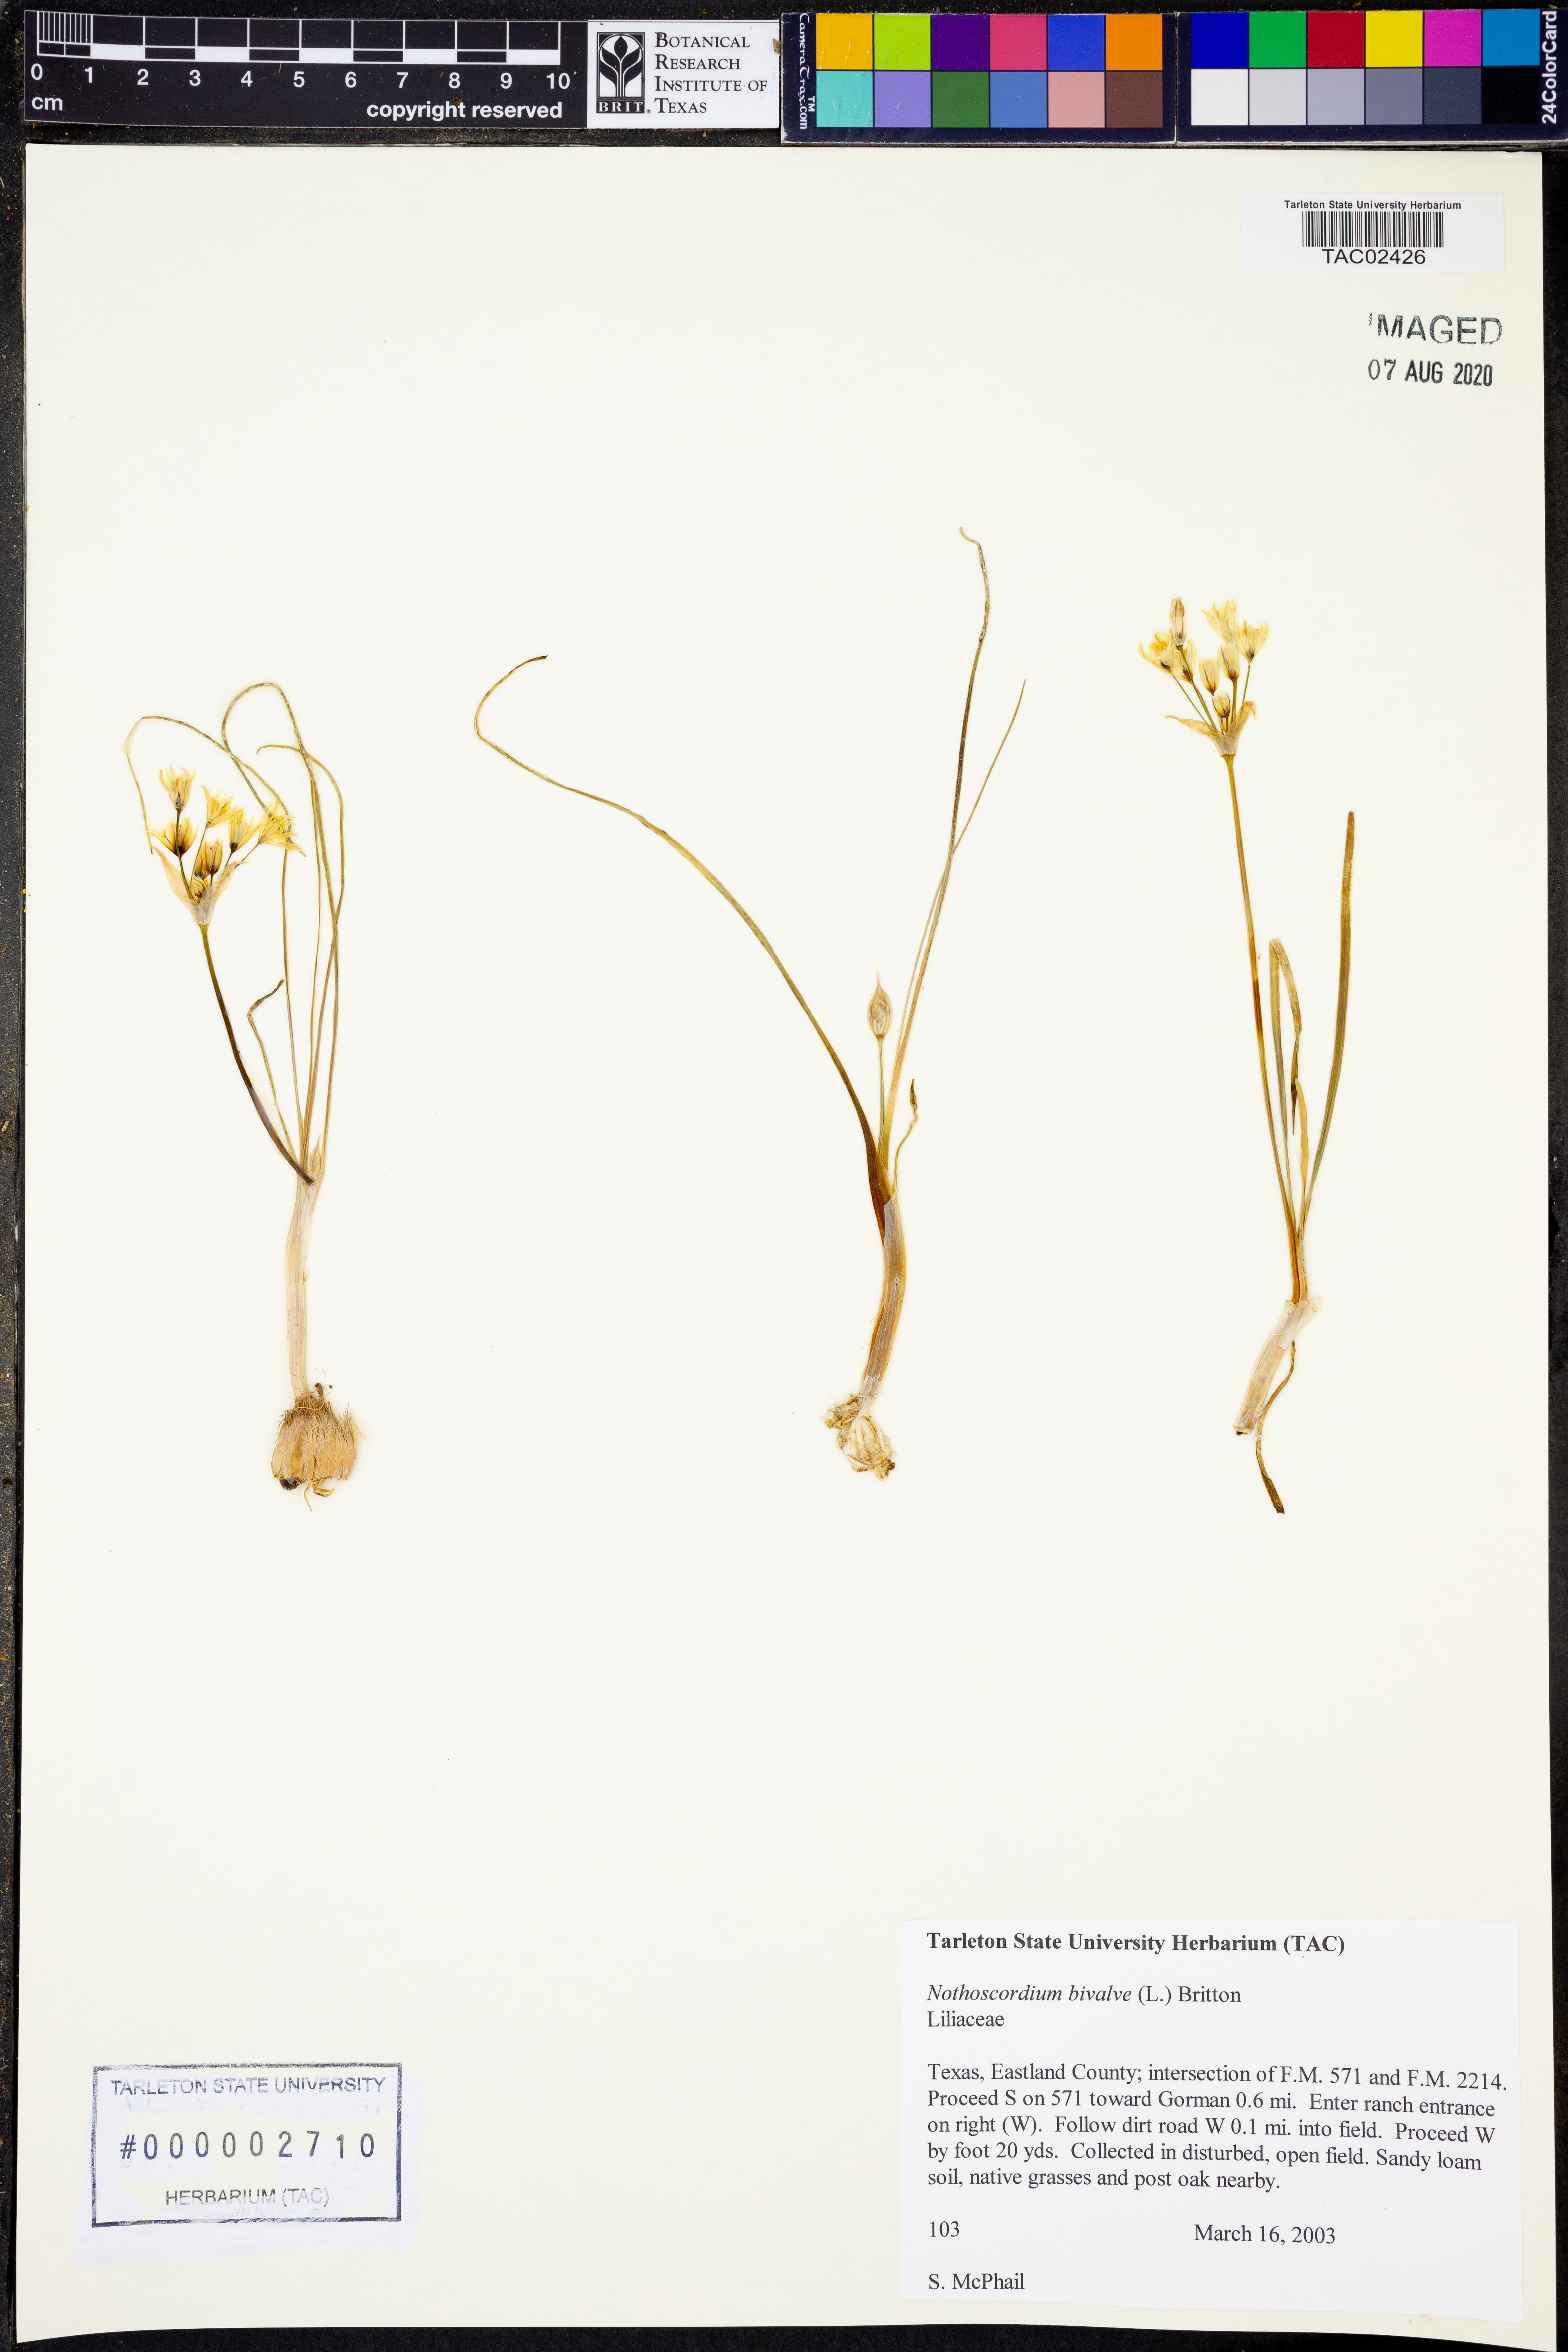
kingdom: Plantae
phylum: Tracheophyta
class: Liliopsida
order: Asparagales
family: Amaryllidaceae
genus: Nothoscordum
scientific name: Nothoscordum bivalve
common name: Crow-poison
